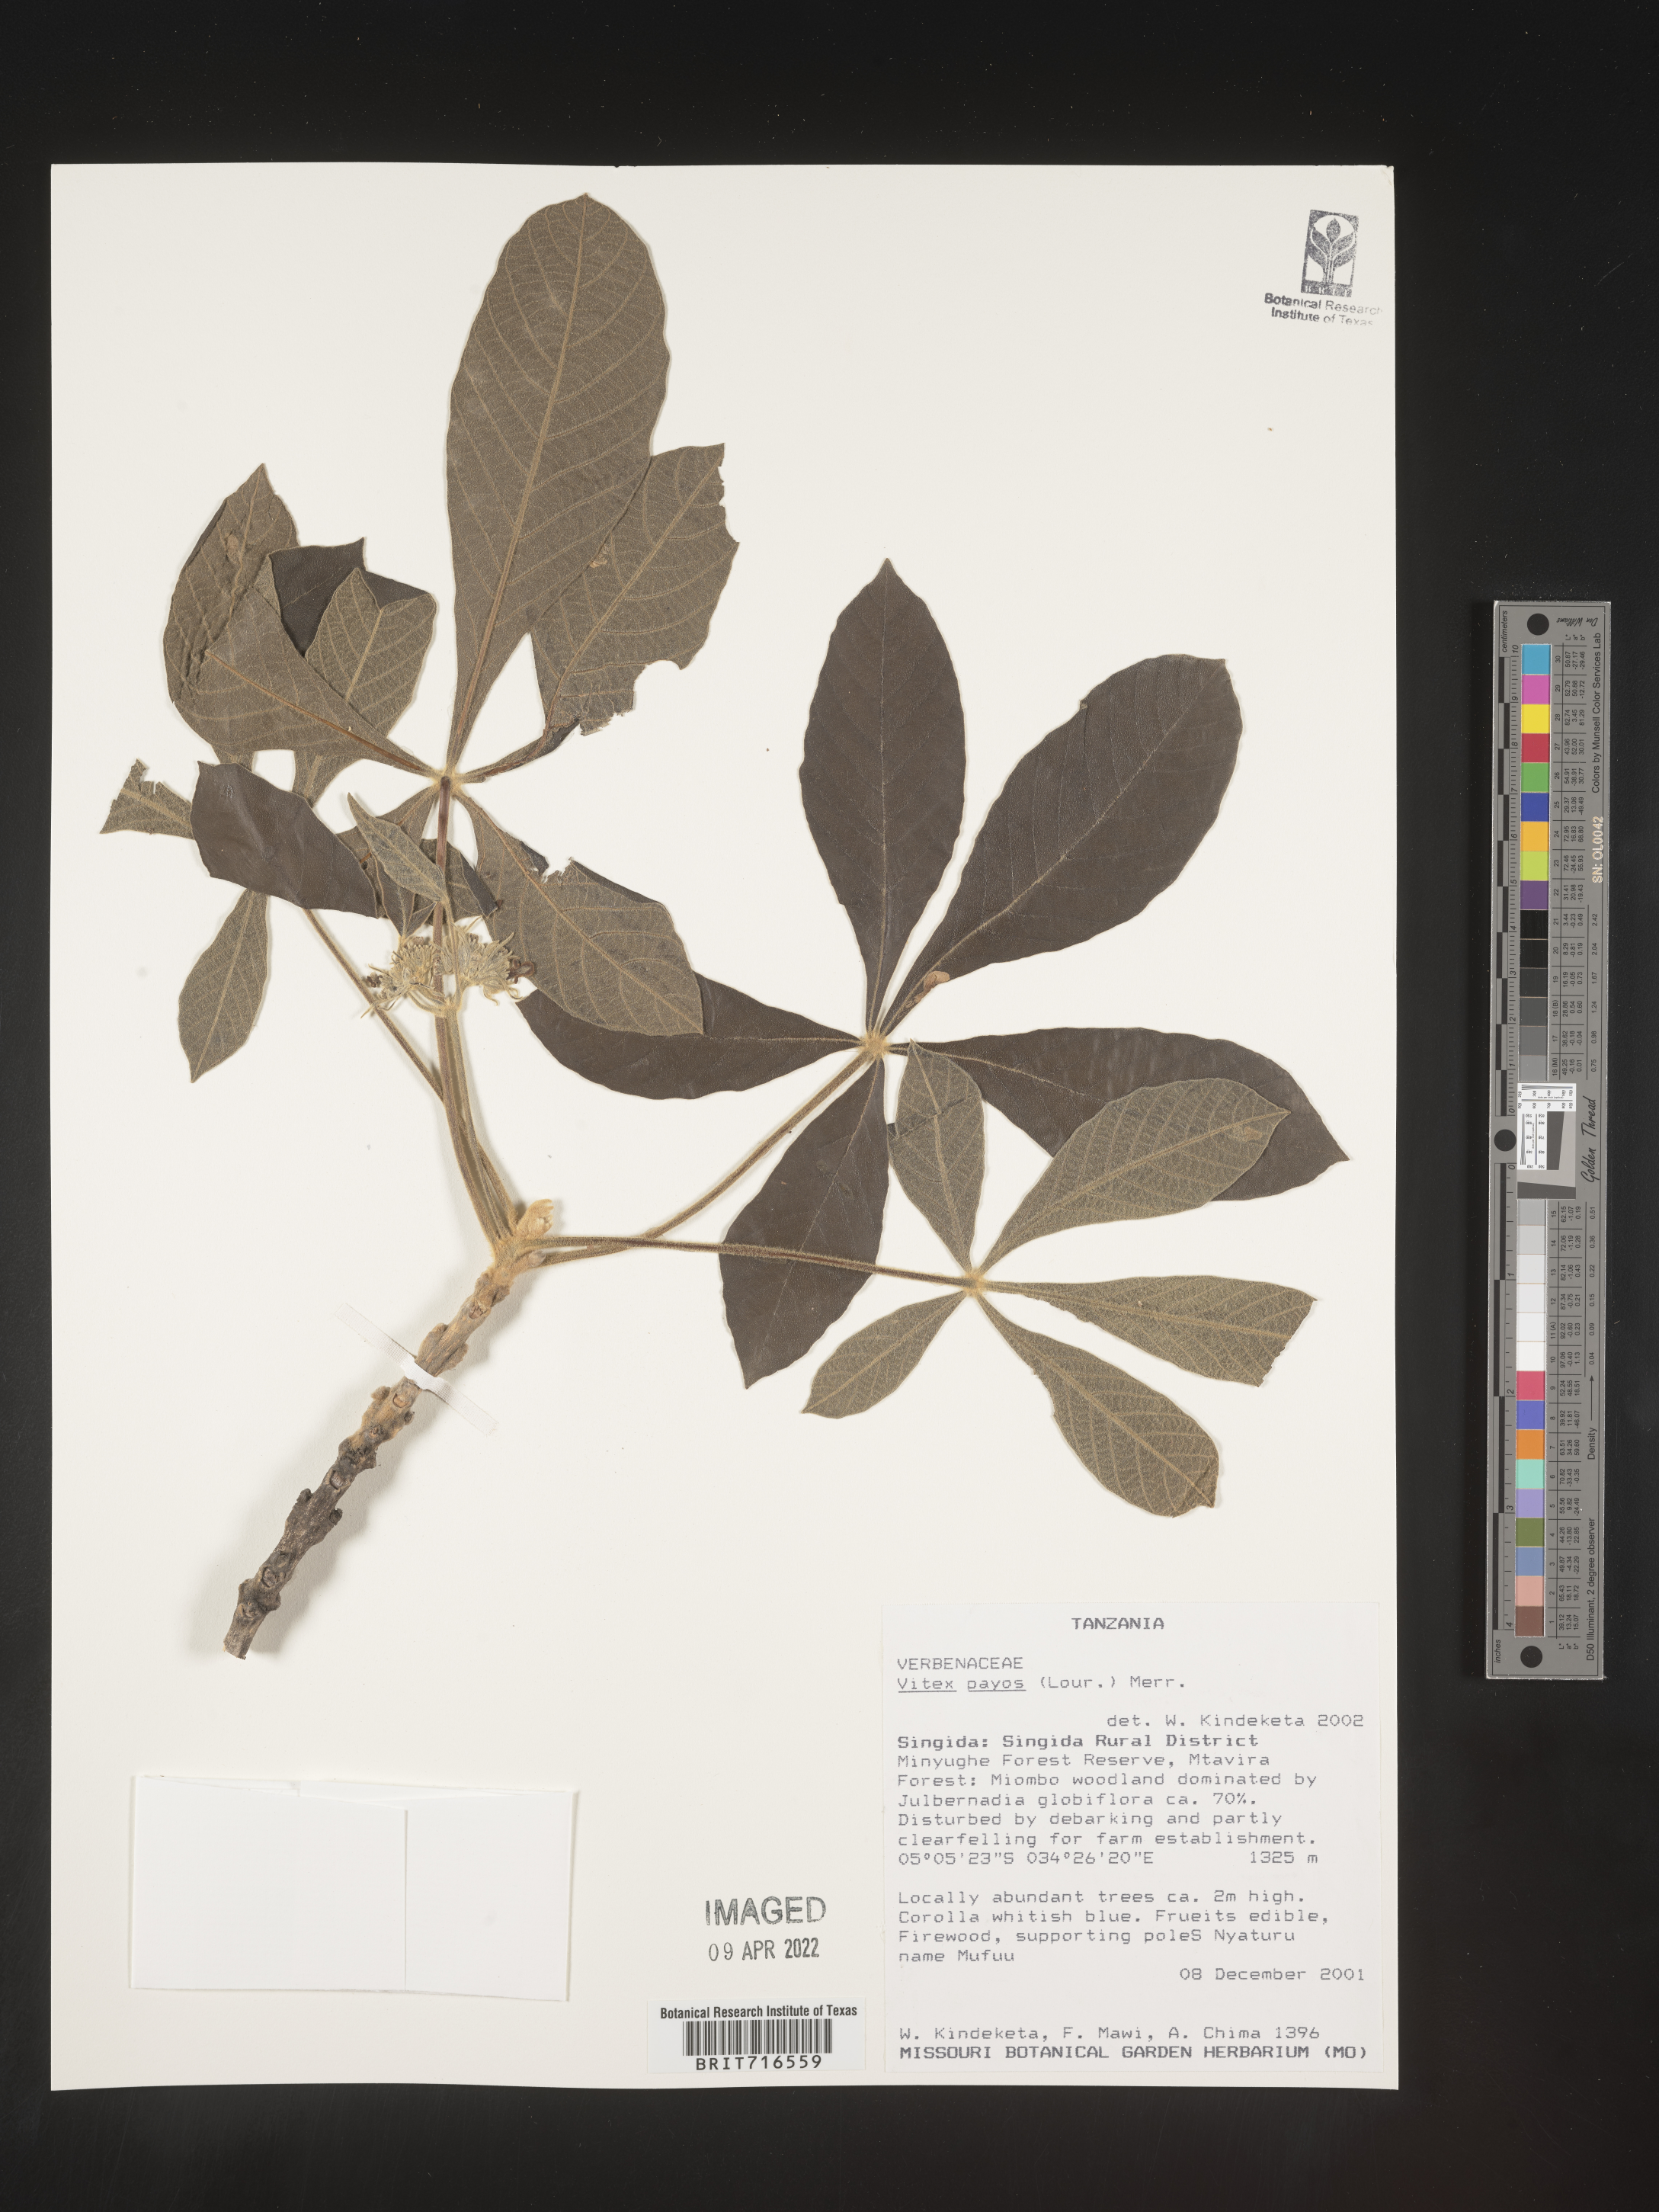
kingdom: Plantae
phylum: Tracheophyta
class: Magnoliopsida
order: Lamiales
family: Lamiaceae
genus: Vitex
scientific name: Vitex
